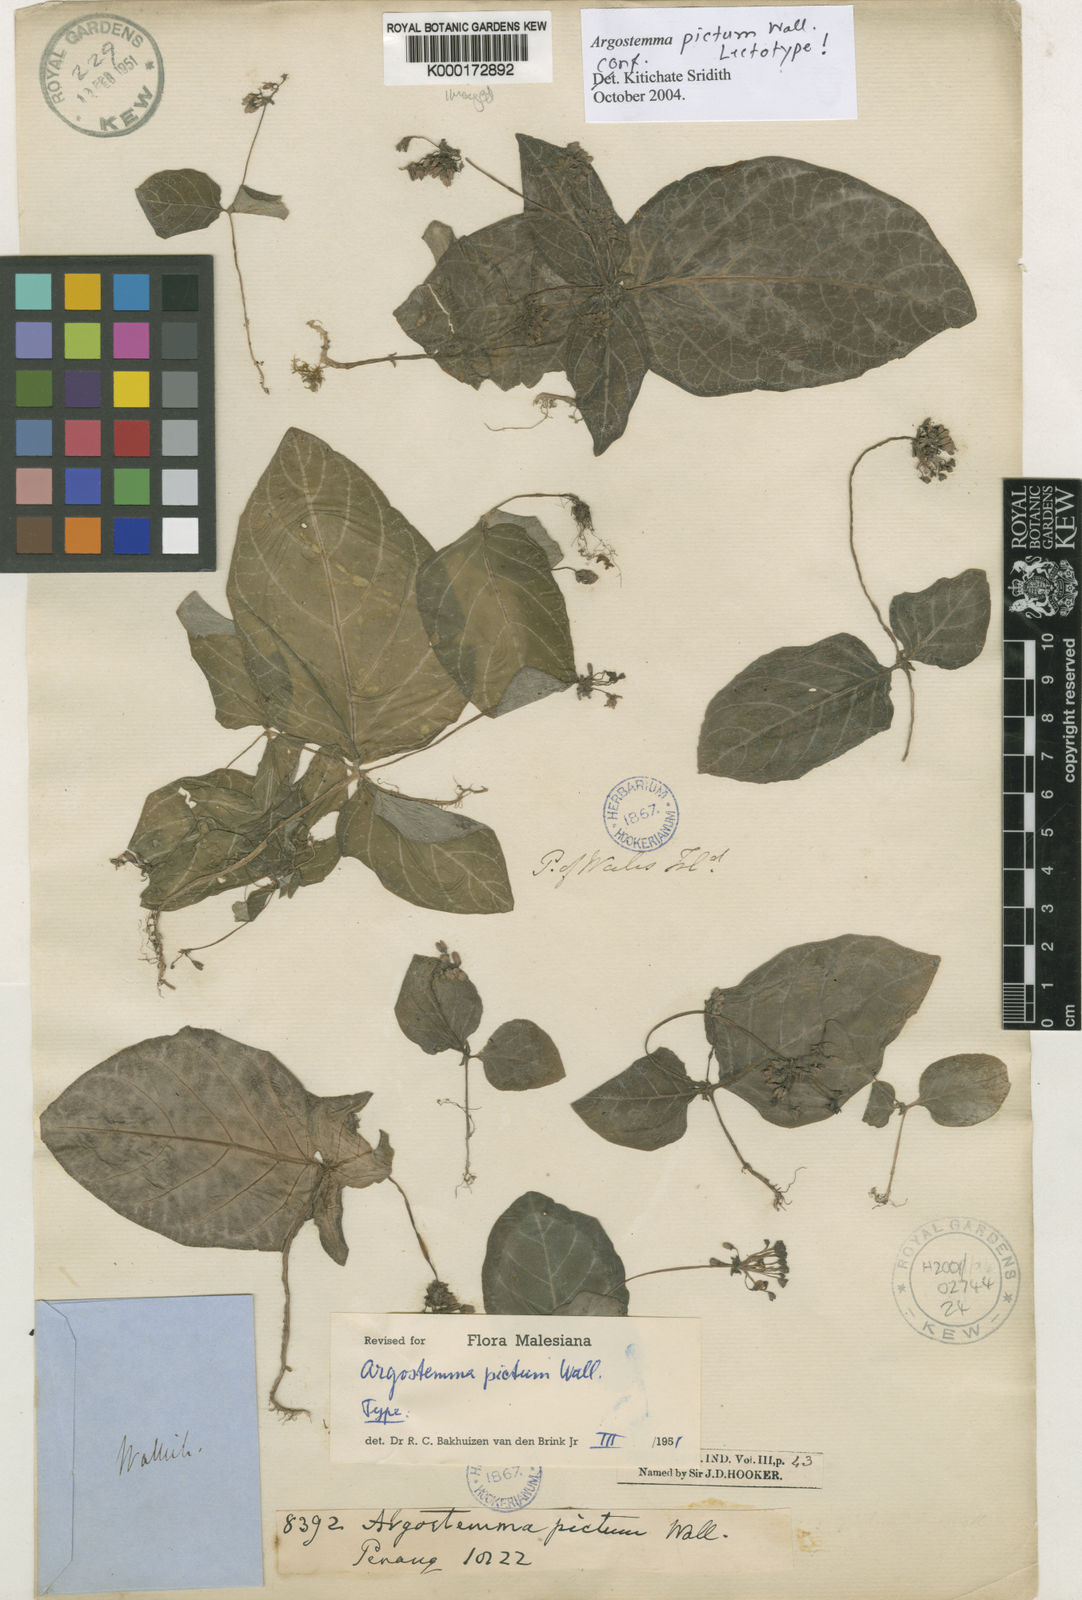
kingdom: Plantae
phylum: Tracheophyta
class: Magnoliopsida
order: Gentianales
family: Rubiaceae
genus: Argostemma
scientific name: Argostemma pictum
